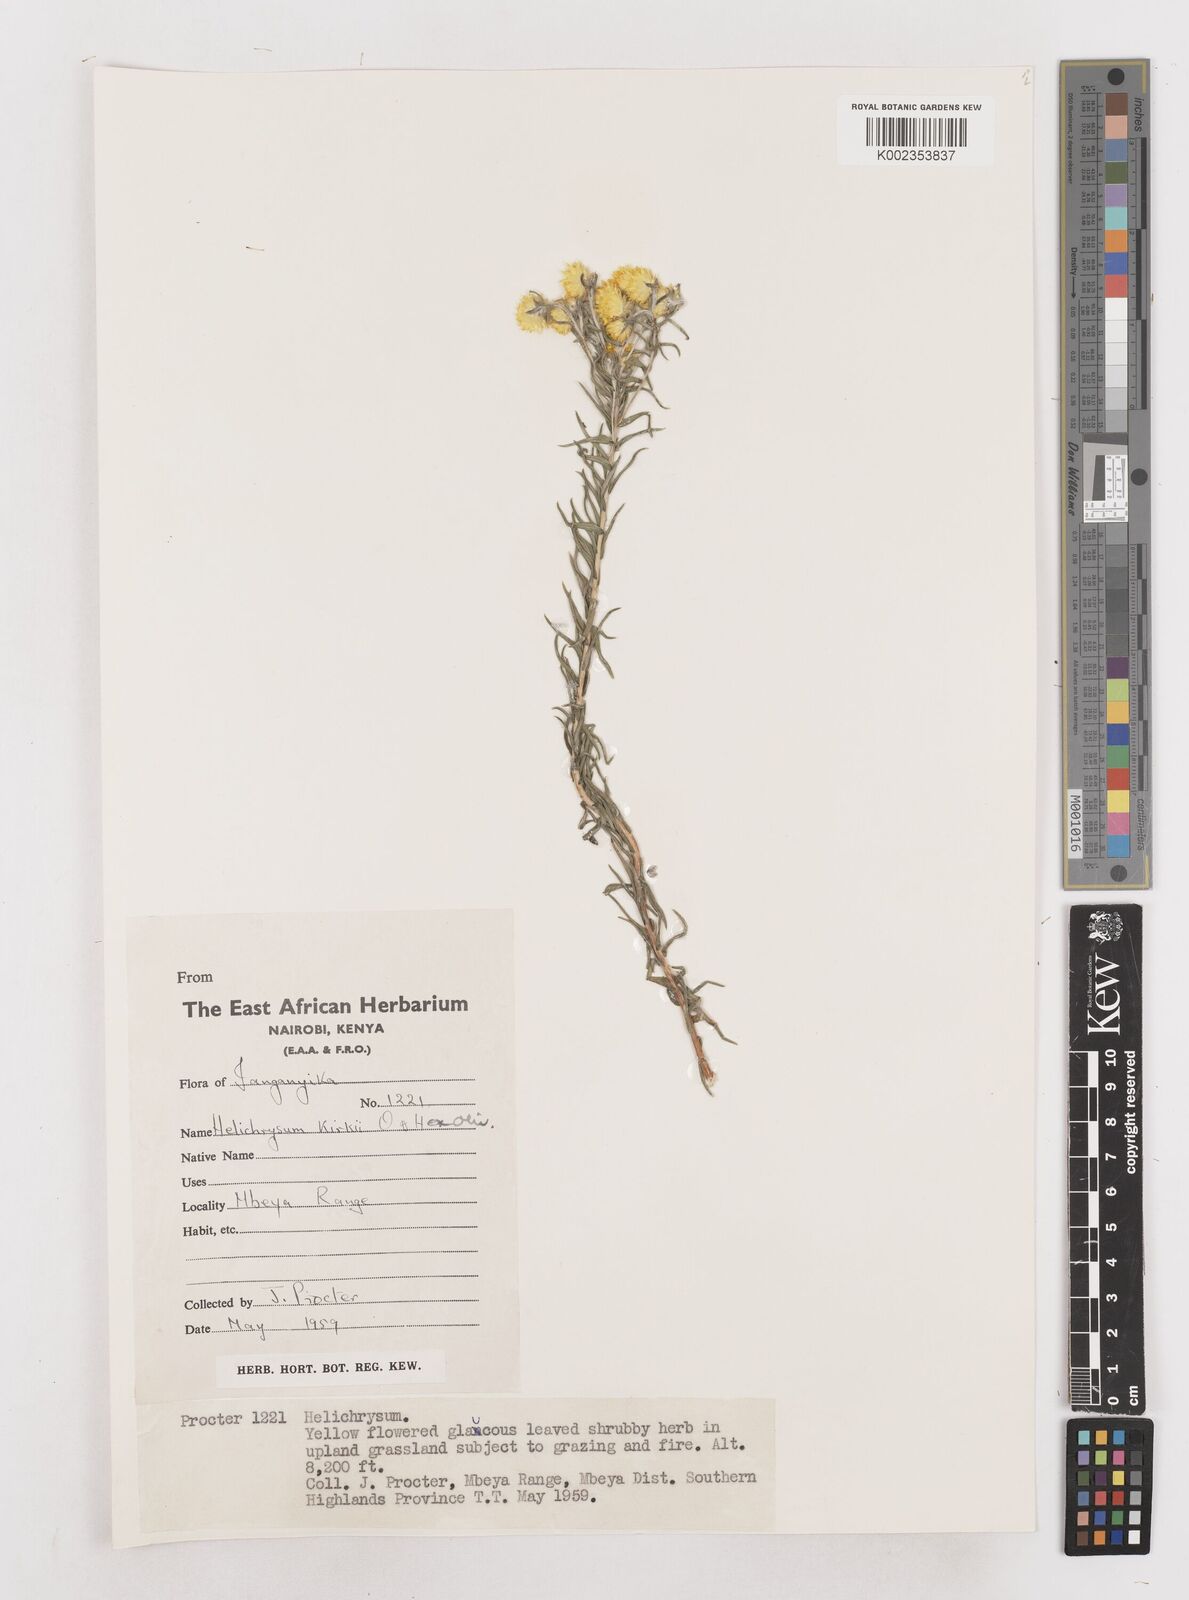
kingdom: Plantae
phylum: Tracheophyta
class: Magnoliopsida
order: Asterales
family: Asteraceae
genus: Helichrysum
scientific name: Helichrysum kirkii
